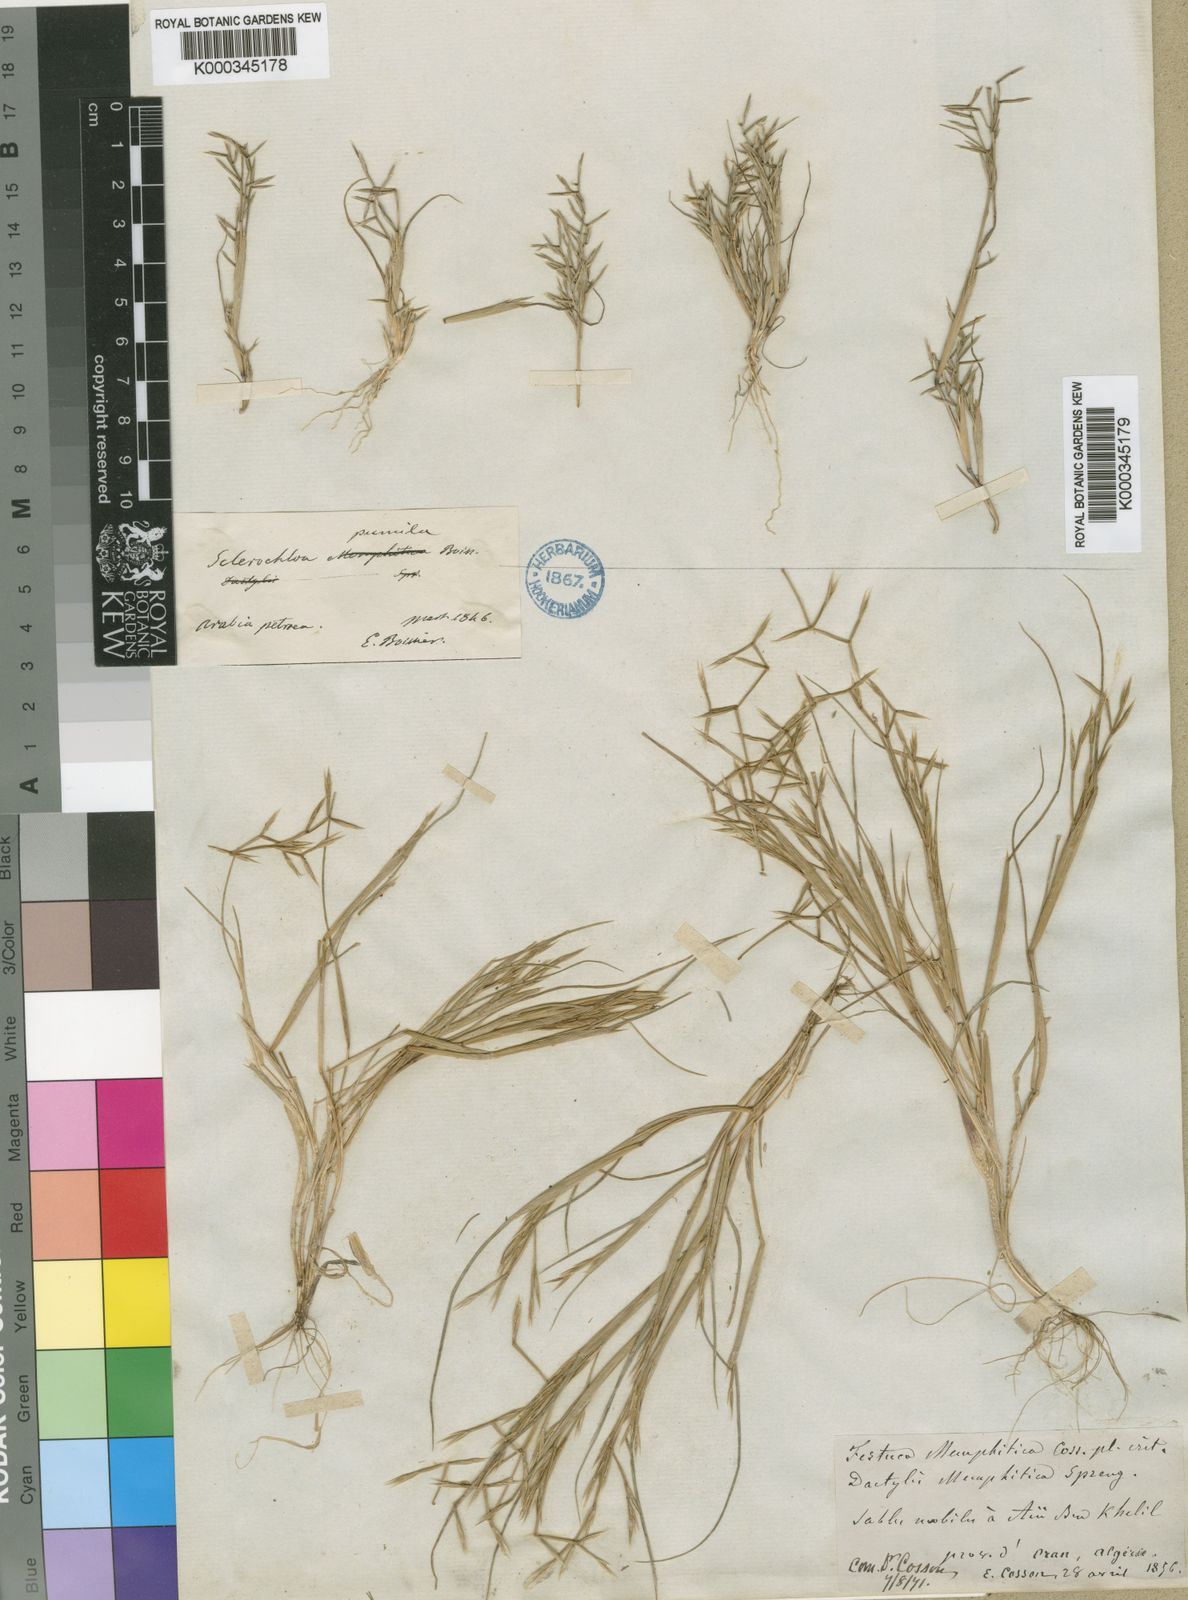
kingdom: Plantae
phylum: Tracheophyta
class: Liliopsida
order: Poales
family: Poaceae
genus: Cutandia
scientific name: Cutandia memphitica
